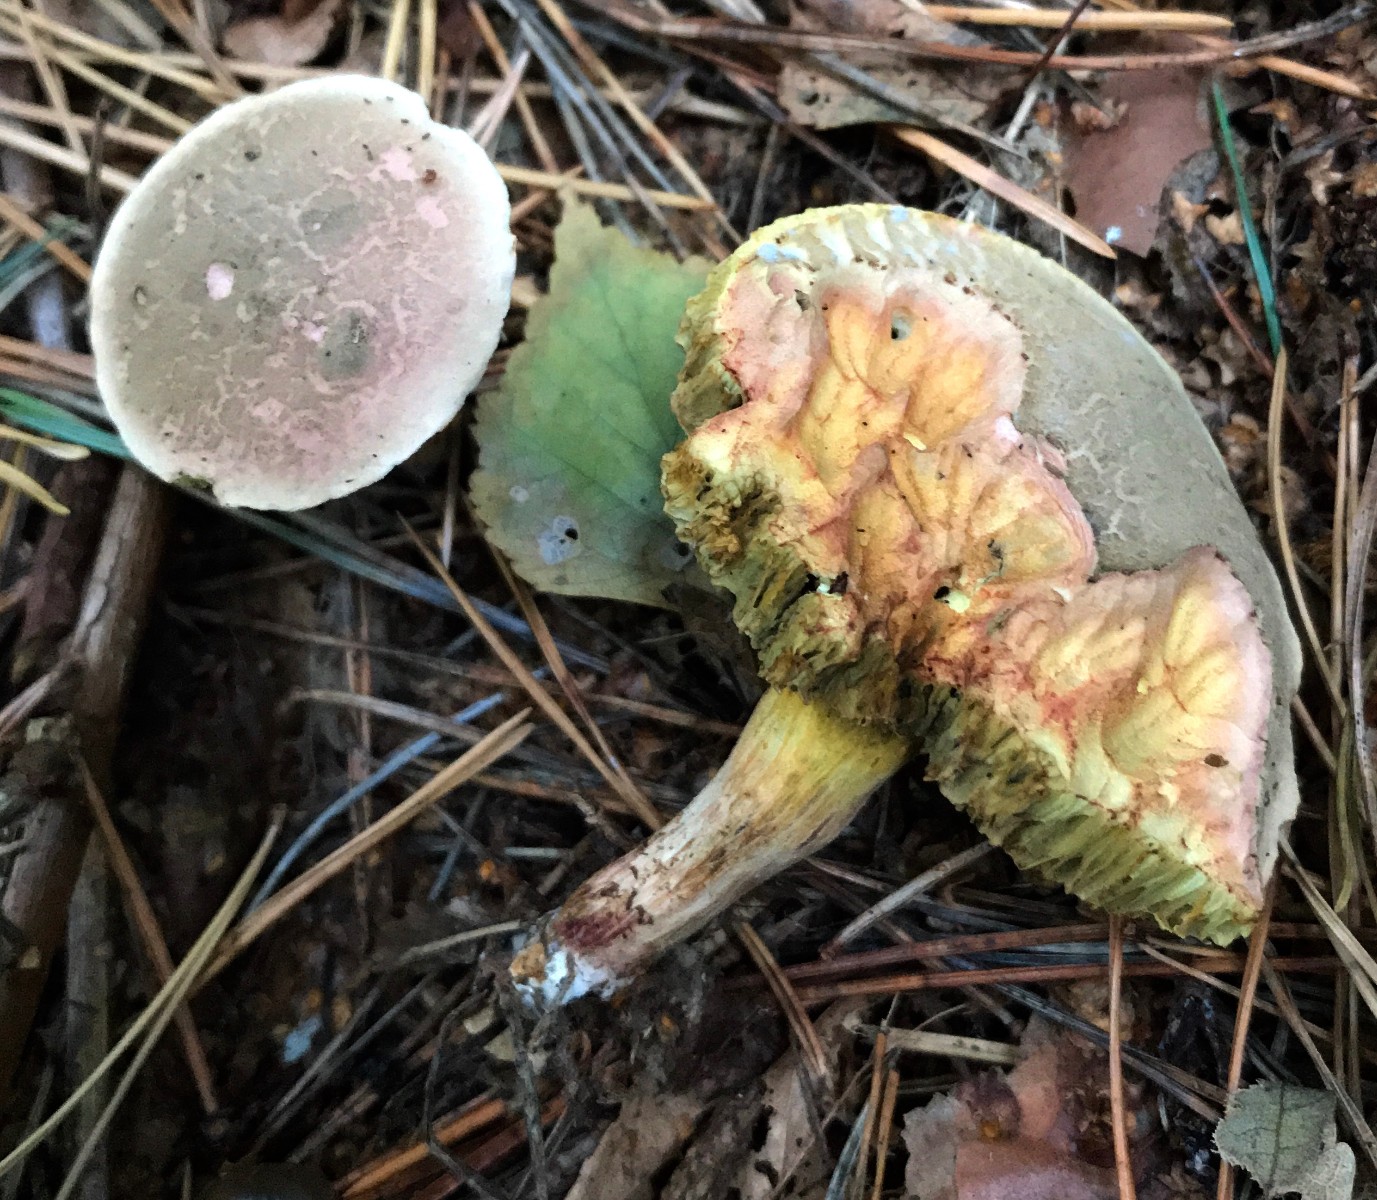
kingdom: Fungi
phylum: Basidiomycota
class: Agaricomycetes
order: Boletales
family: Boletaceae
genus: Xerocomellus
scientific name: Xerocomellus cisalpinus
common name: finsprukken rørhat
